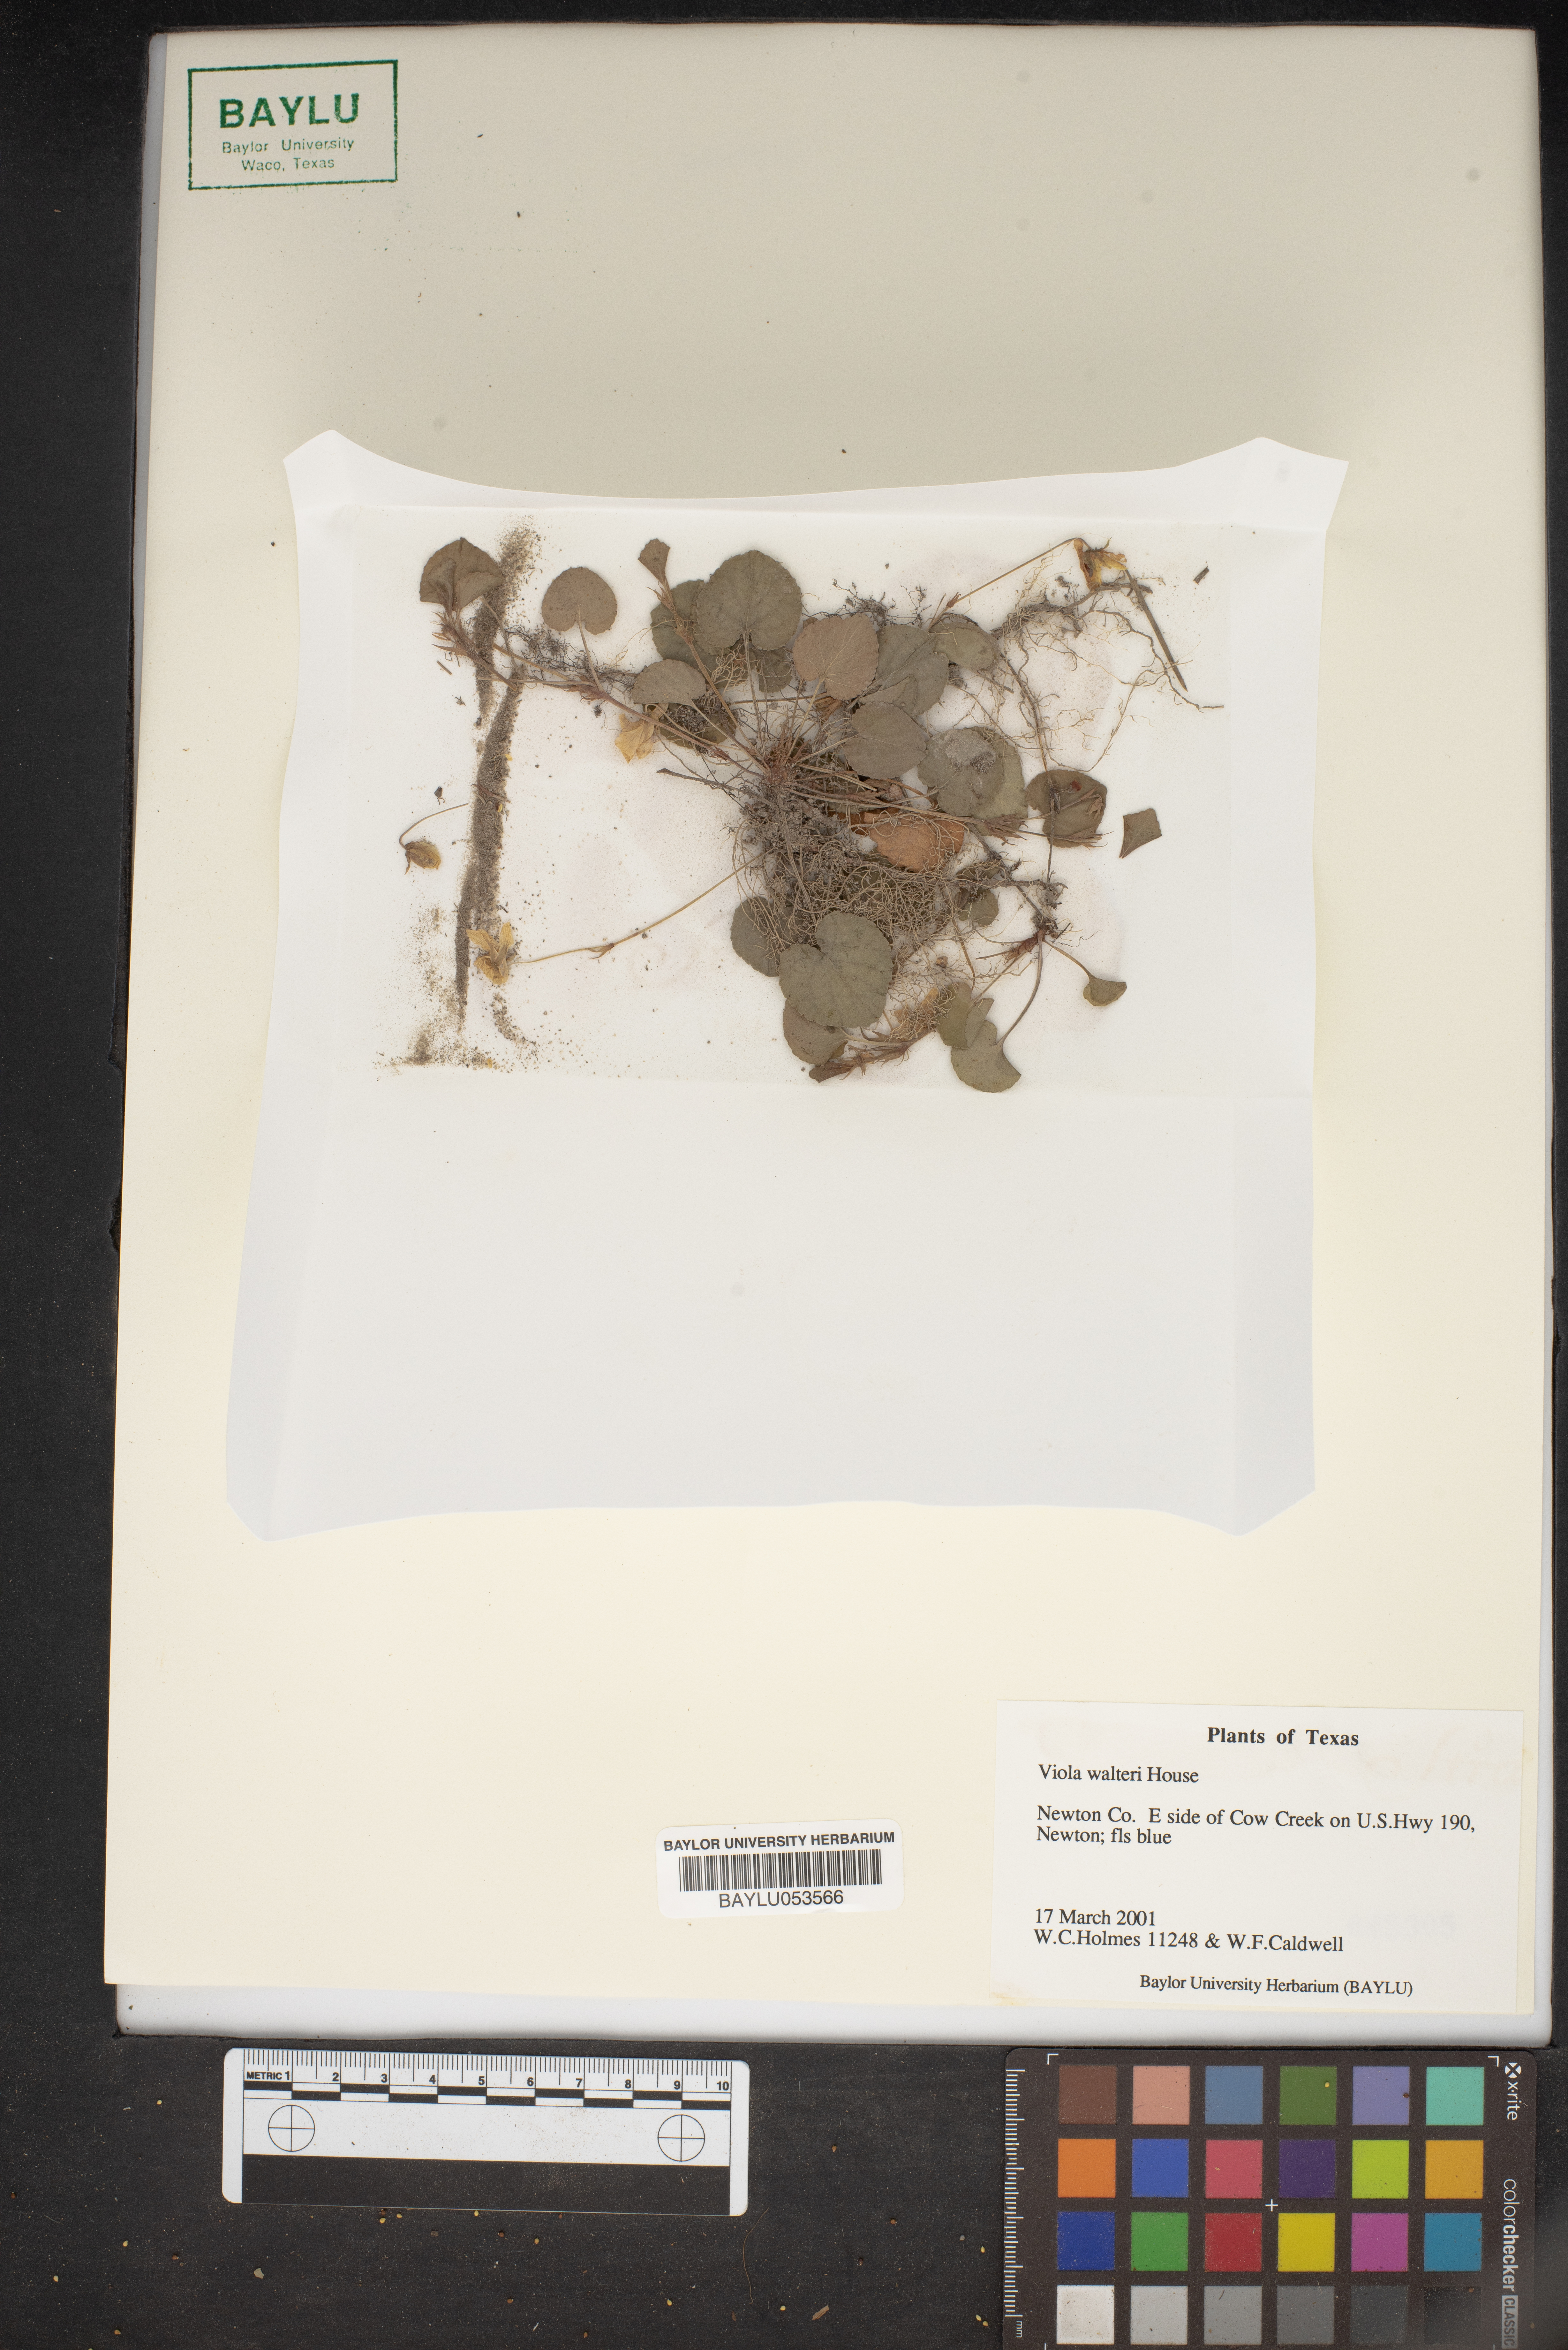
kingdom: Plantae
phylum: Tracheophyta
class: Magnoliopsida
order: Malpighiales
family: Violaceae
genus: Viola
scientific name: Viola walteri
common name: Prostrate southern violet
